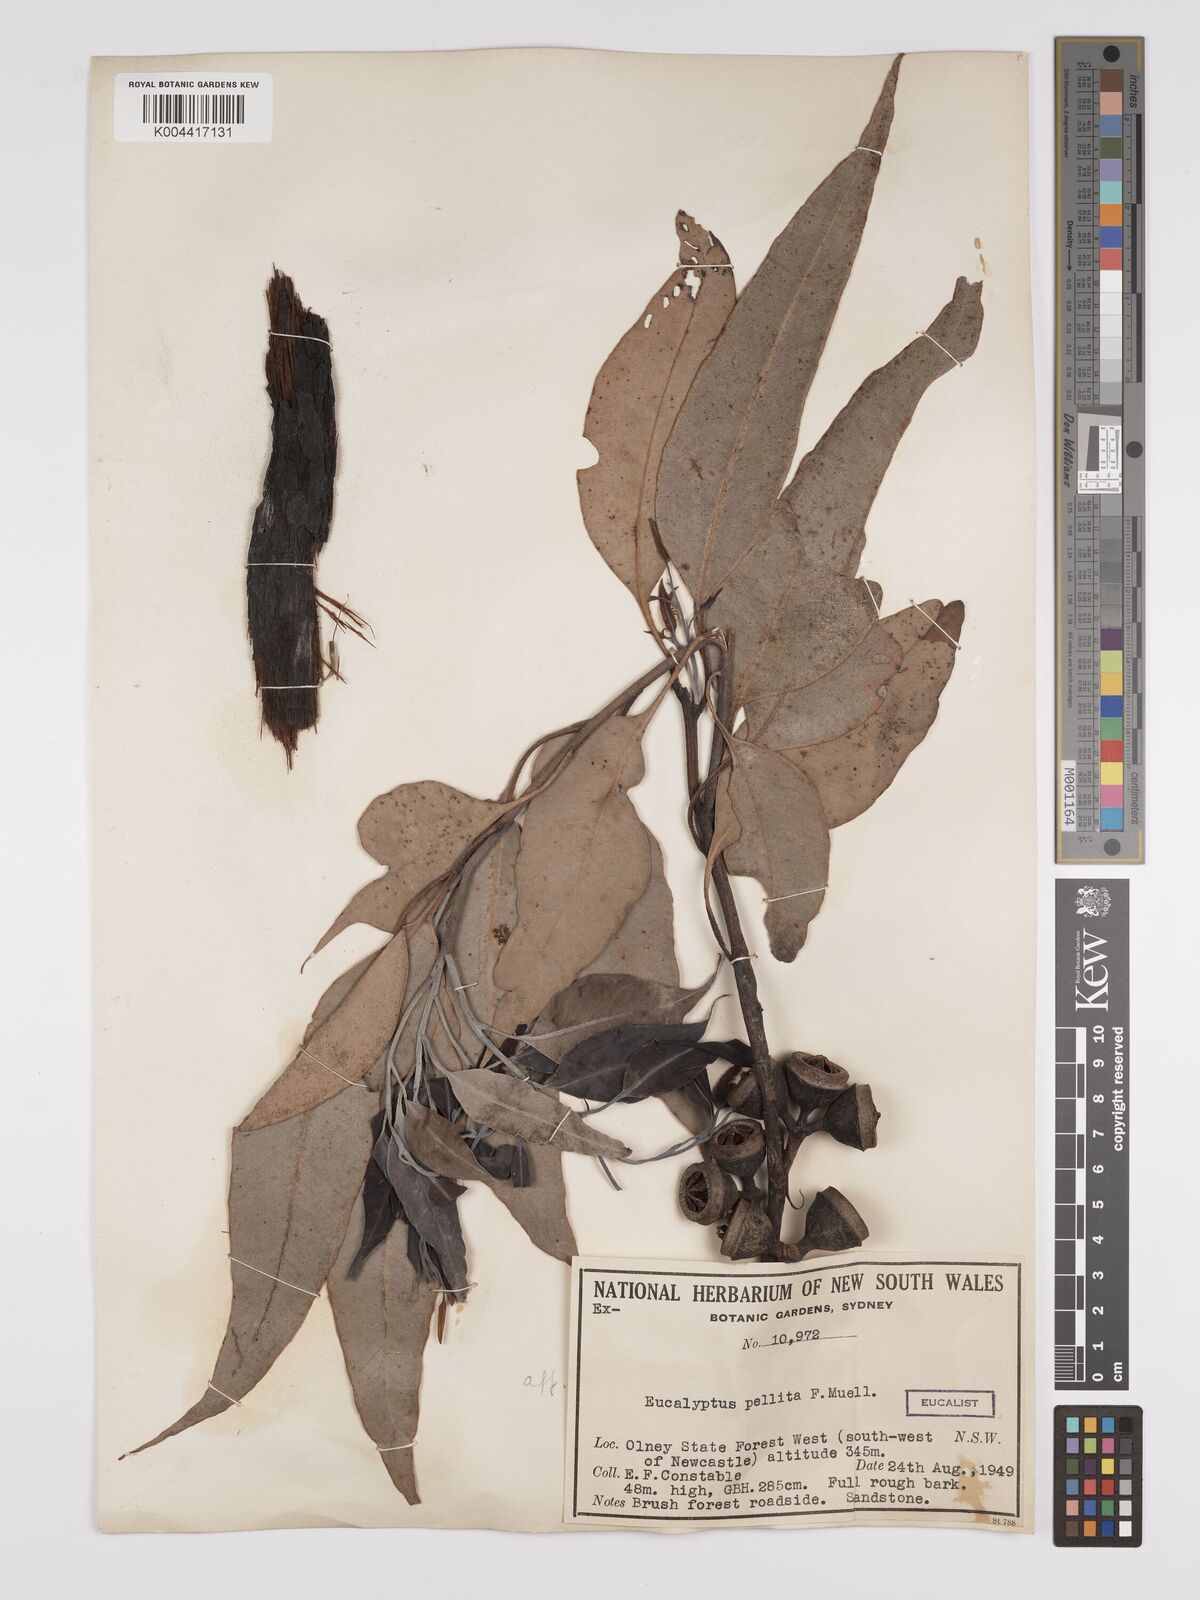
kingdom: Plantae
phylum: Tracheophyta
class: Magnoliopsida
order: Myrtales
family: Myrtaceae
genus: Eucalyptus
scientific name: Eucalyptus pellita
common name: Large-fruited-red-mahogany
